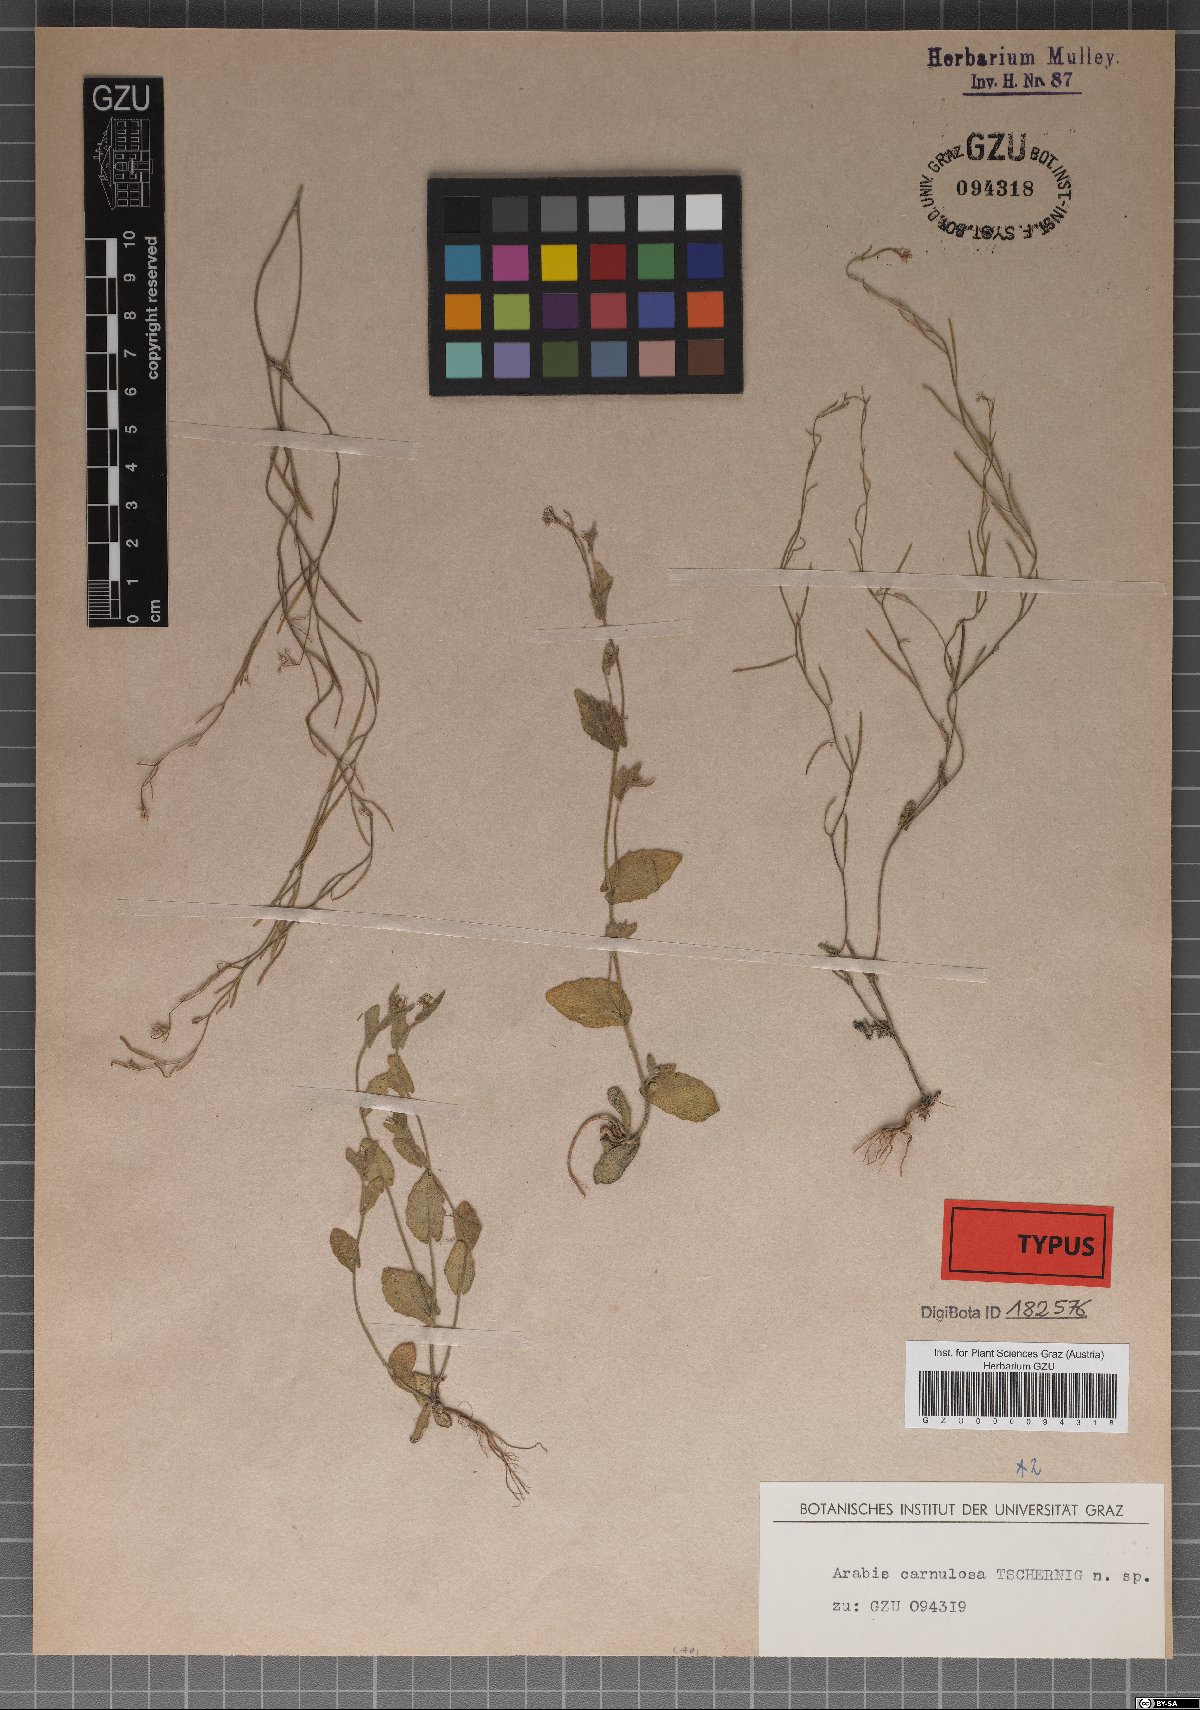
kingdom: Plantae
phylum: Tracheophyta
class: Magnoliopsida
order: Brassicales
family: Brassicaceae
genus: Arabis
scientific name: Arabis auriculata
